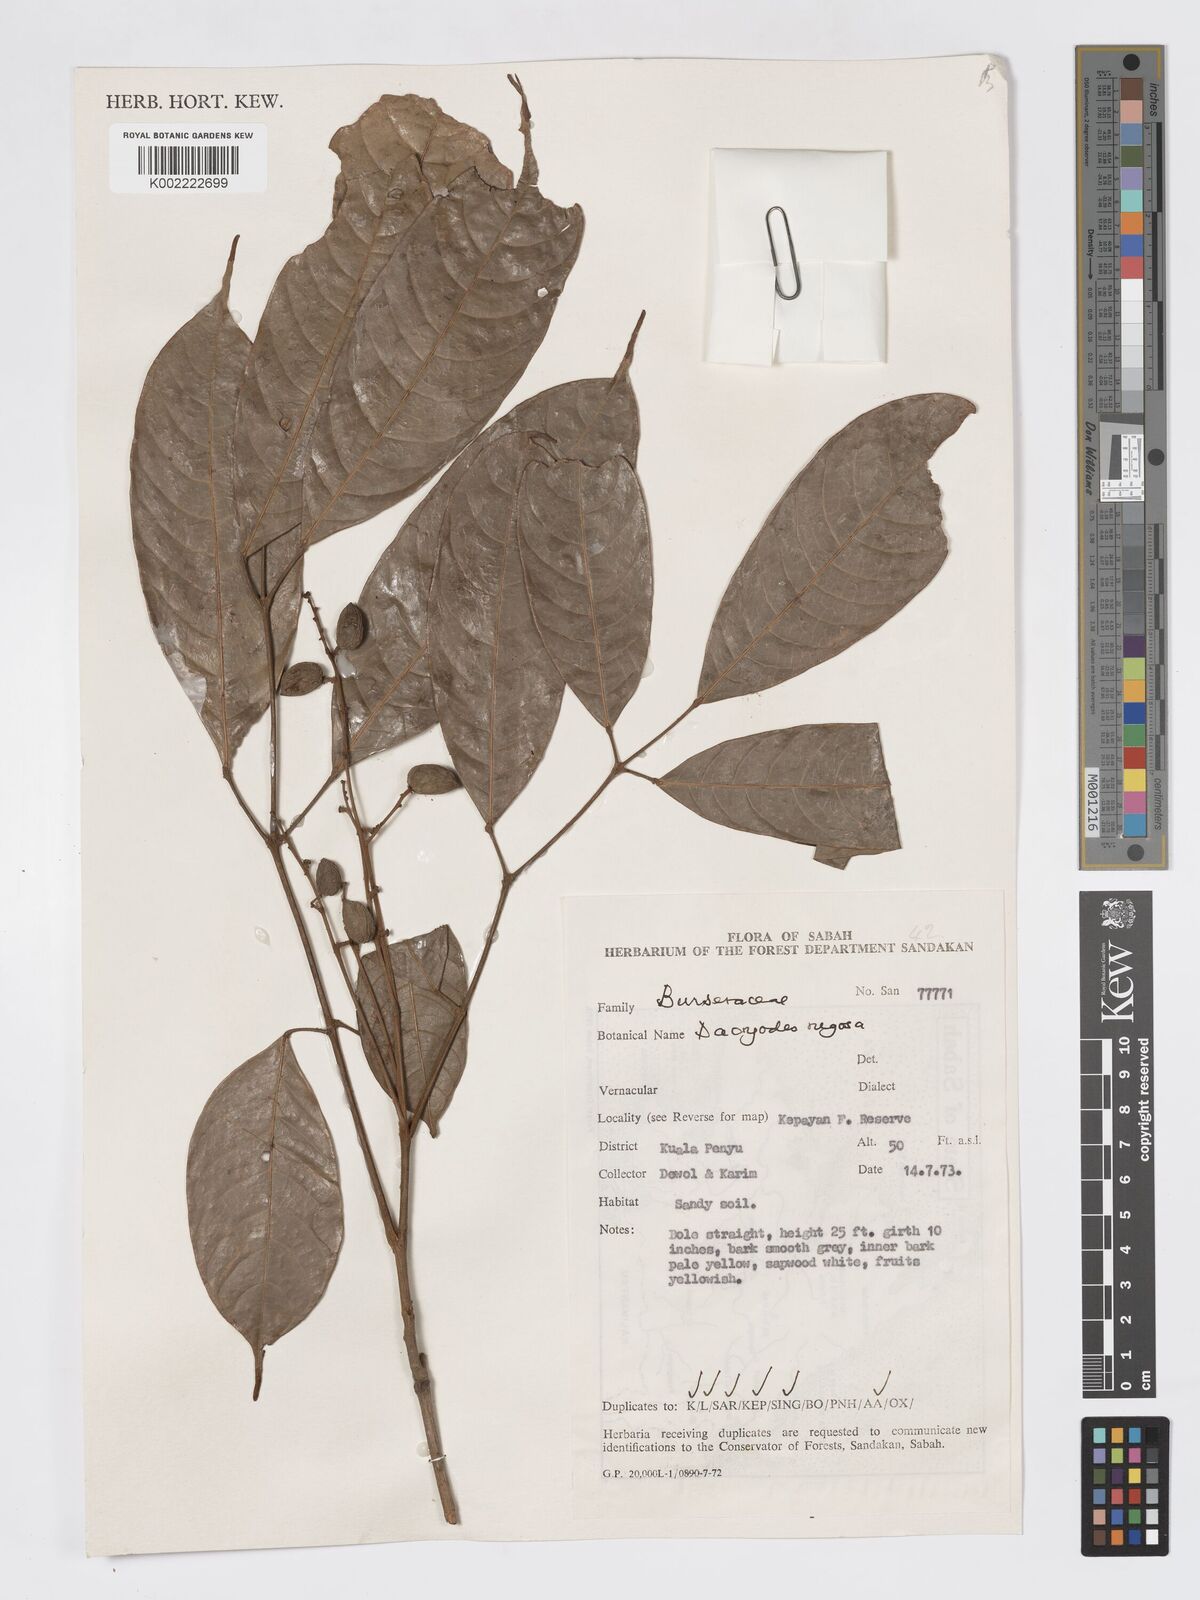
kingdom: Plantae
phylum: Tracheophyta
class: Magnoliopsida
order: Sapindales
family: Burseraceae
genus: Dacryodes
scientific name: Dacryodes rugosa
